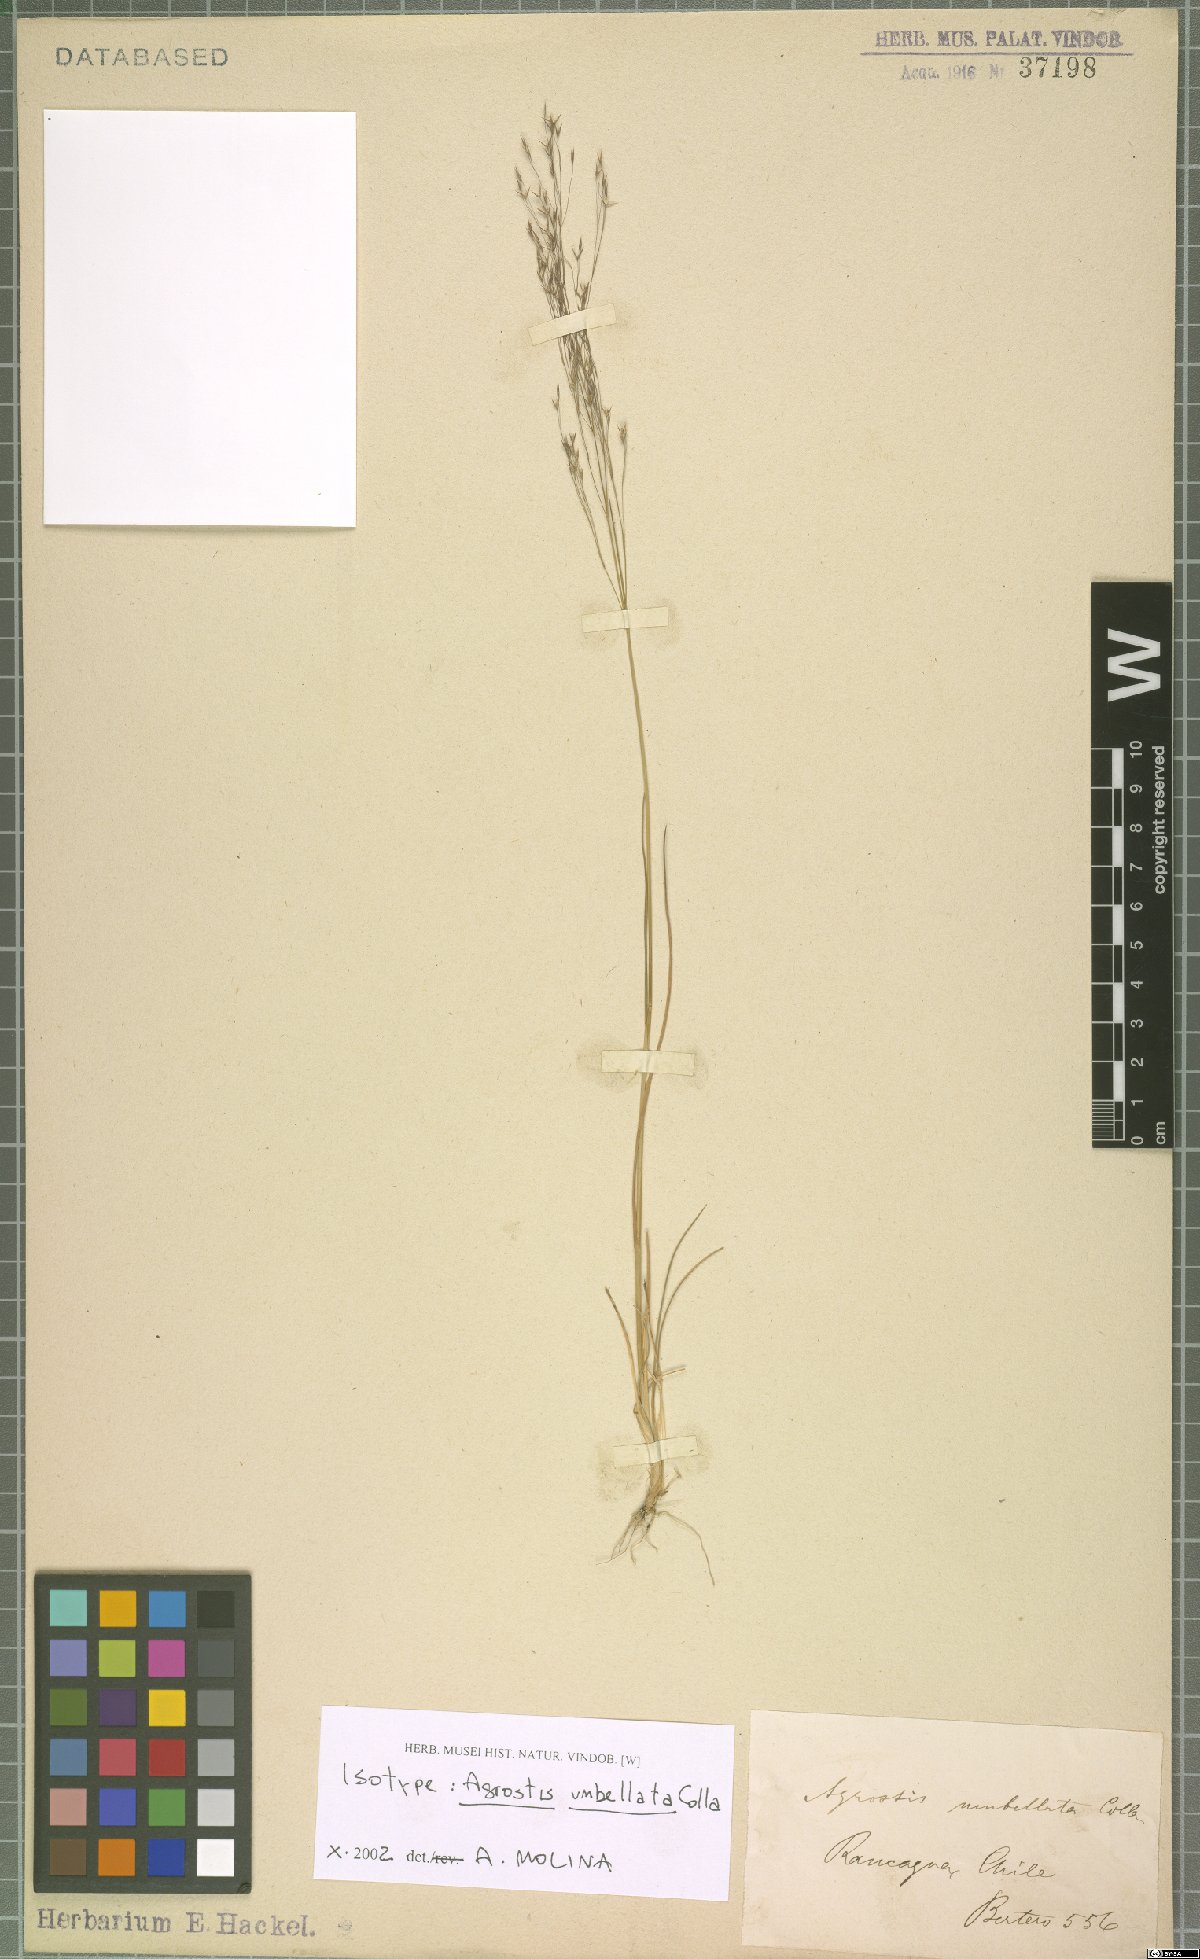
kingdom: Plantae
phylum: Tracheophyta
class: Liliopsida
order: Poales
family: Poaceae
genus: Agrostis
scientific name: Agrostis umbellata
